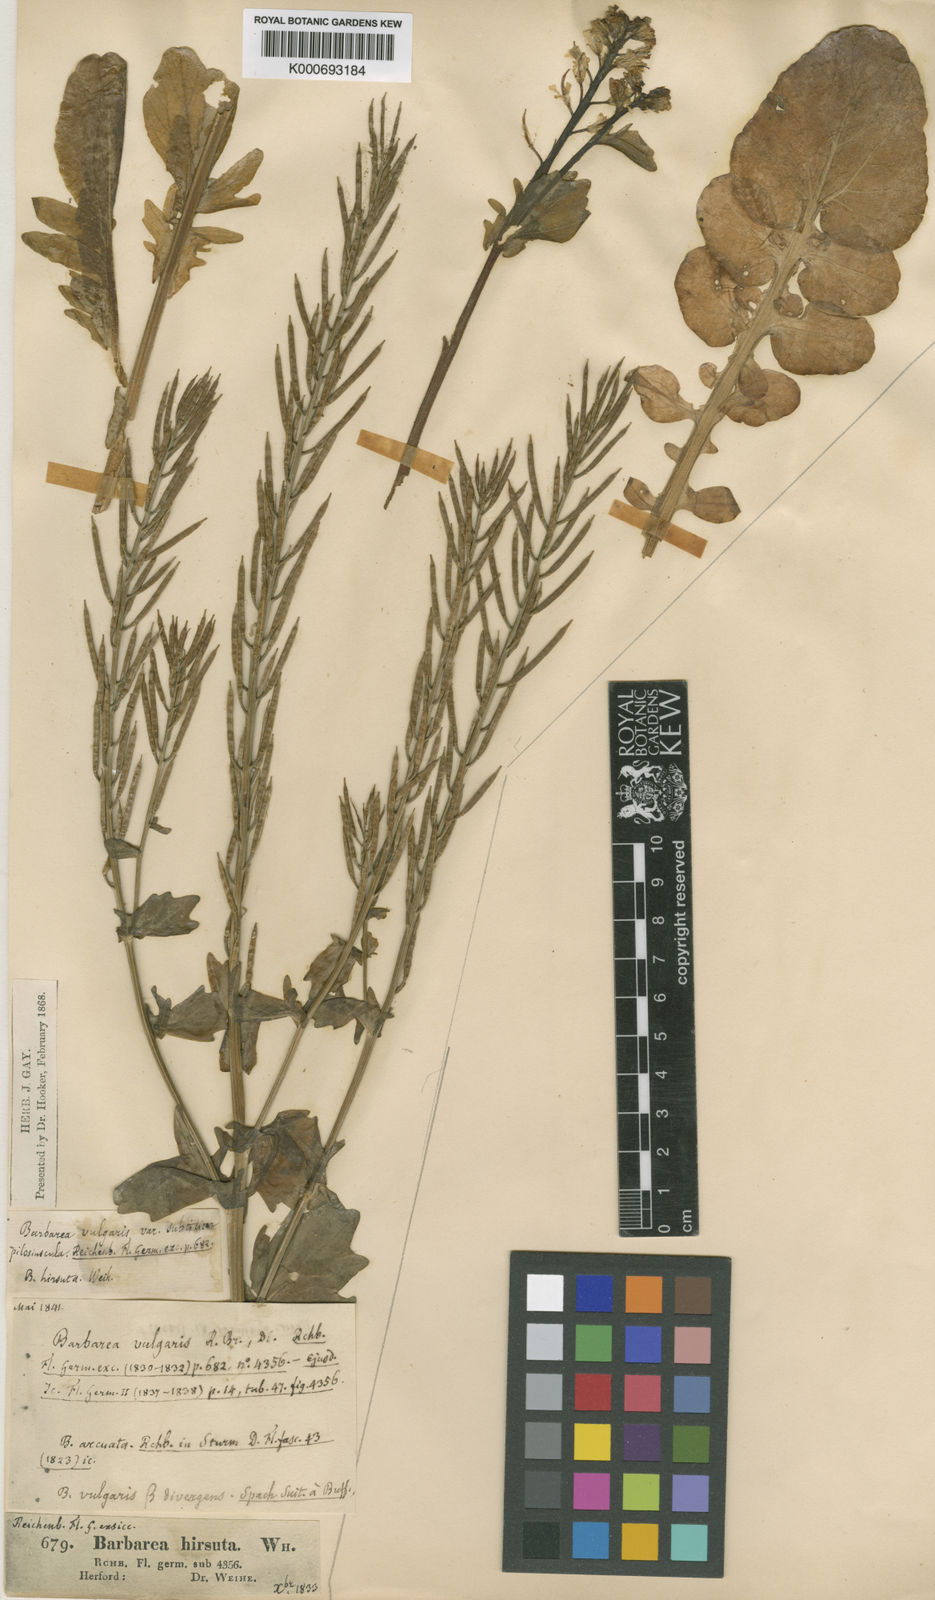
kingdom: Plantae
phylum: Tracheophyta
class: Magnoliopsida
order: Brassicales
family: Brassicaceae
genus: Barbarea
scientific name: Barbarea
